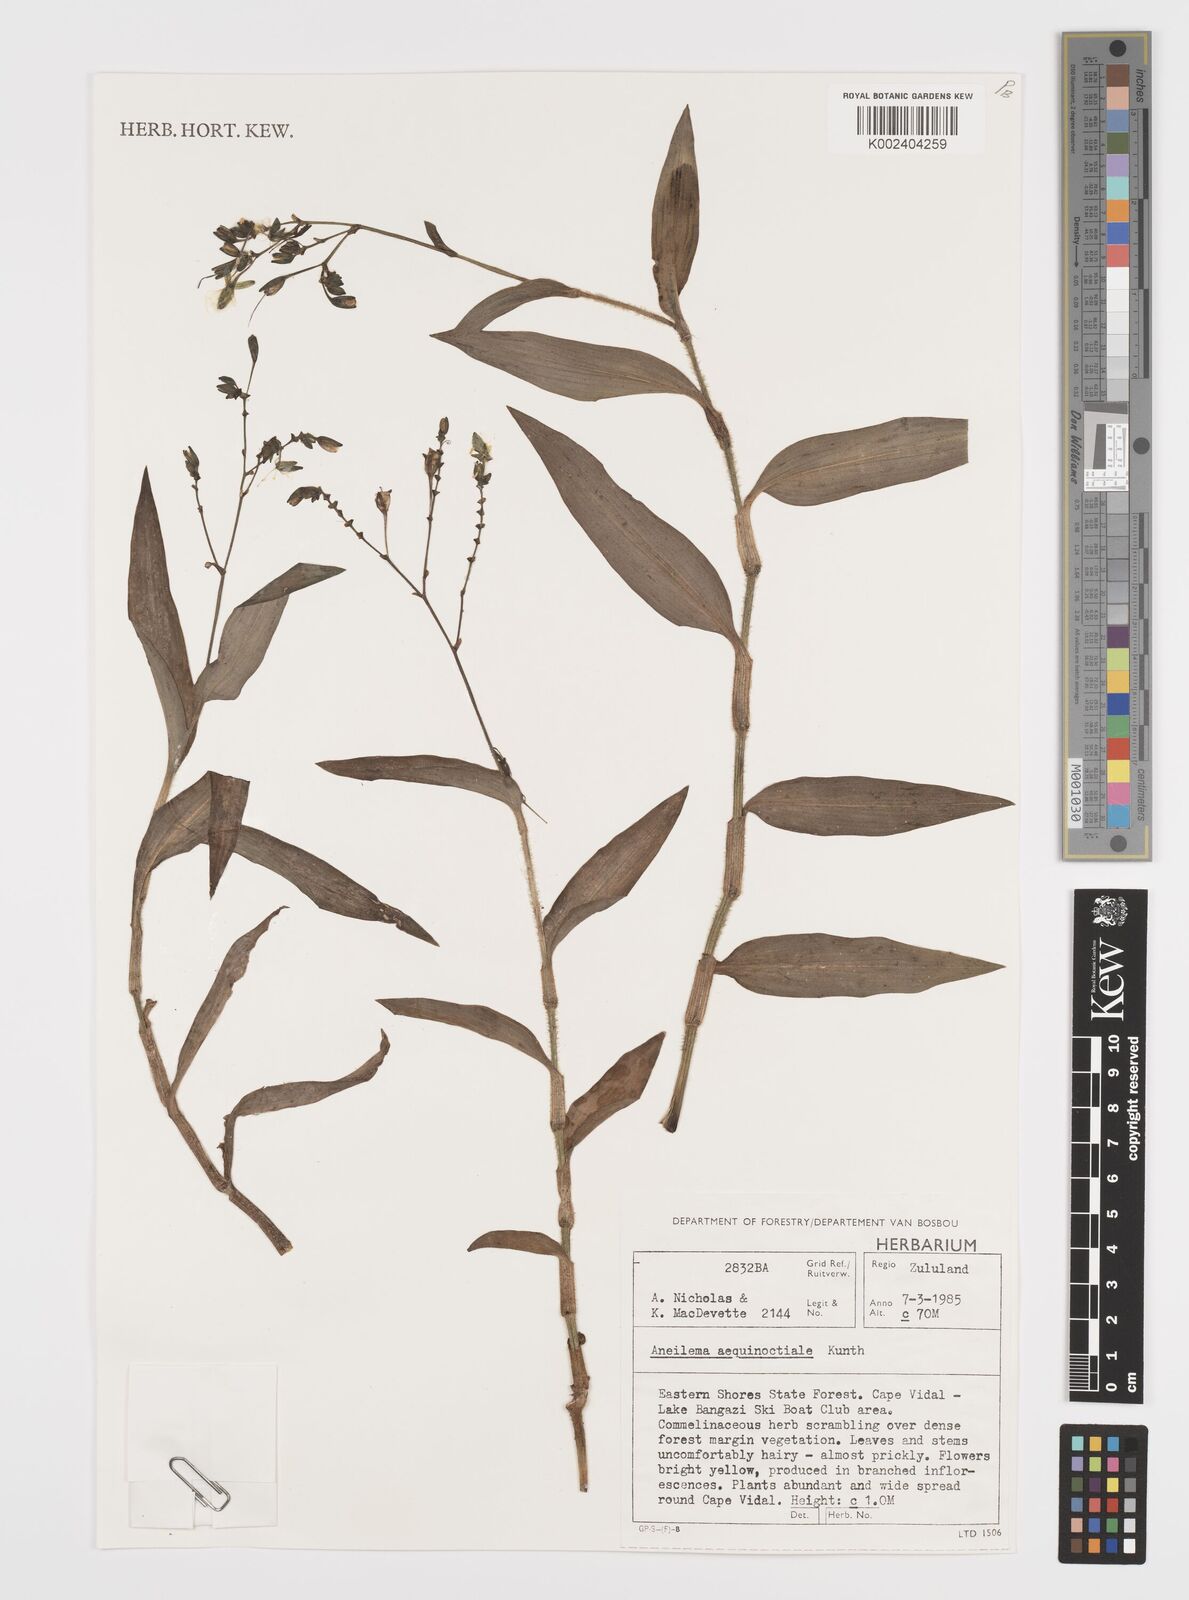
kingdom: Plantae
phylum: Tracheophyta
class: Liliopsida
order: Commelinales
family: Commelinaceae
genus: Aneilema
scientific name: Aneilema aequinoctiale
